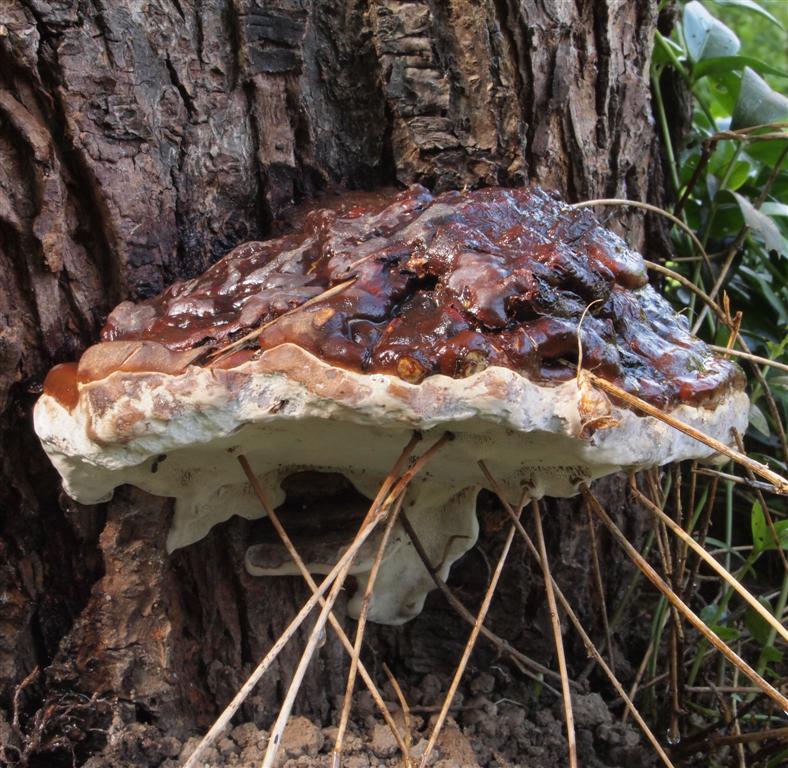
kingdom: Fungi
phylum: Basidiomycota
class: Agaricomycetes
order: Polyporales
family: Polyporaceae
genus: Ganoderma
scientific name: Ganoderma pfeifferi
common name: kobberrød lakporesvamp
